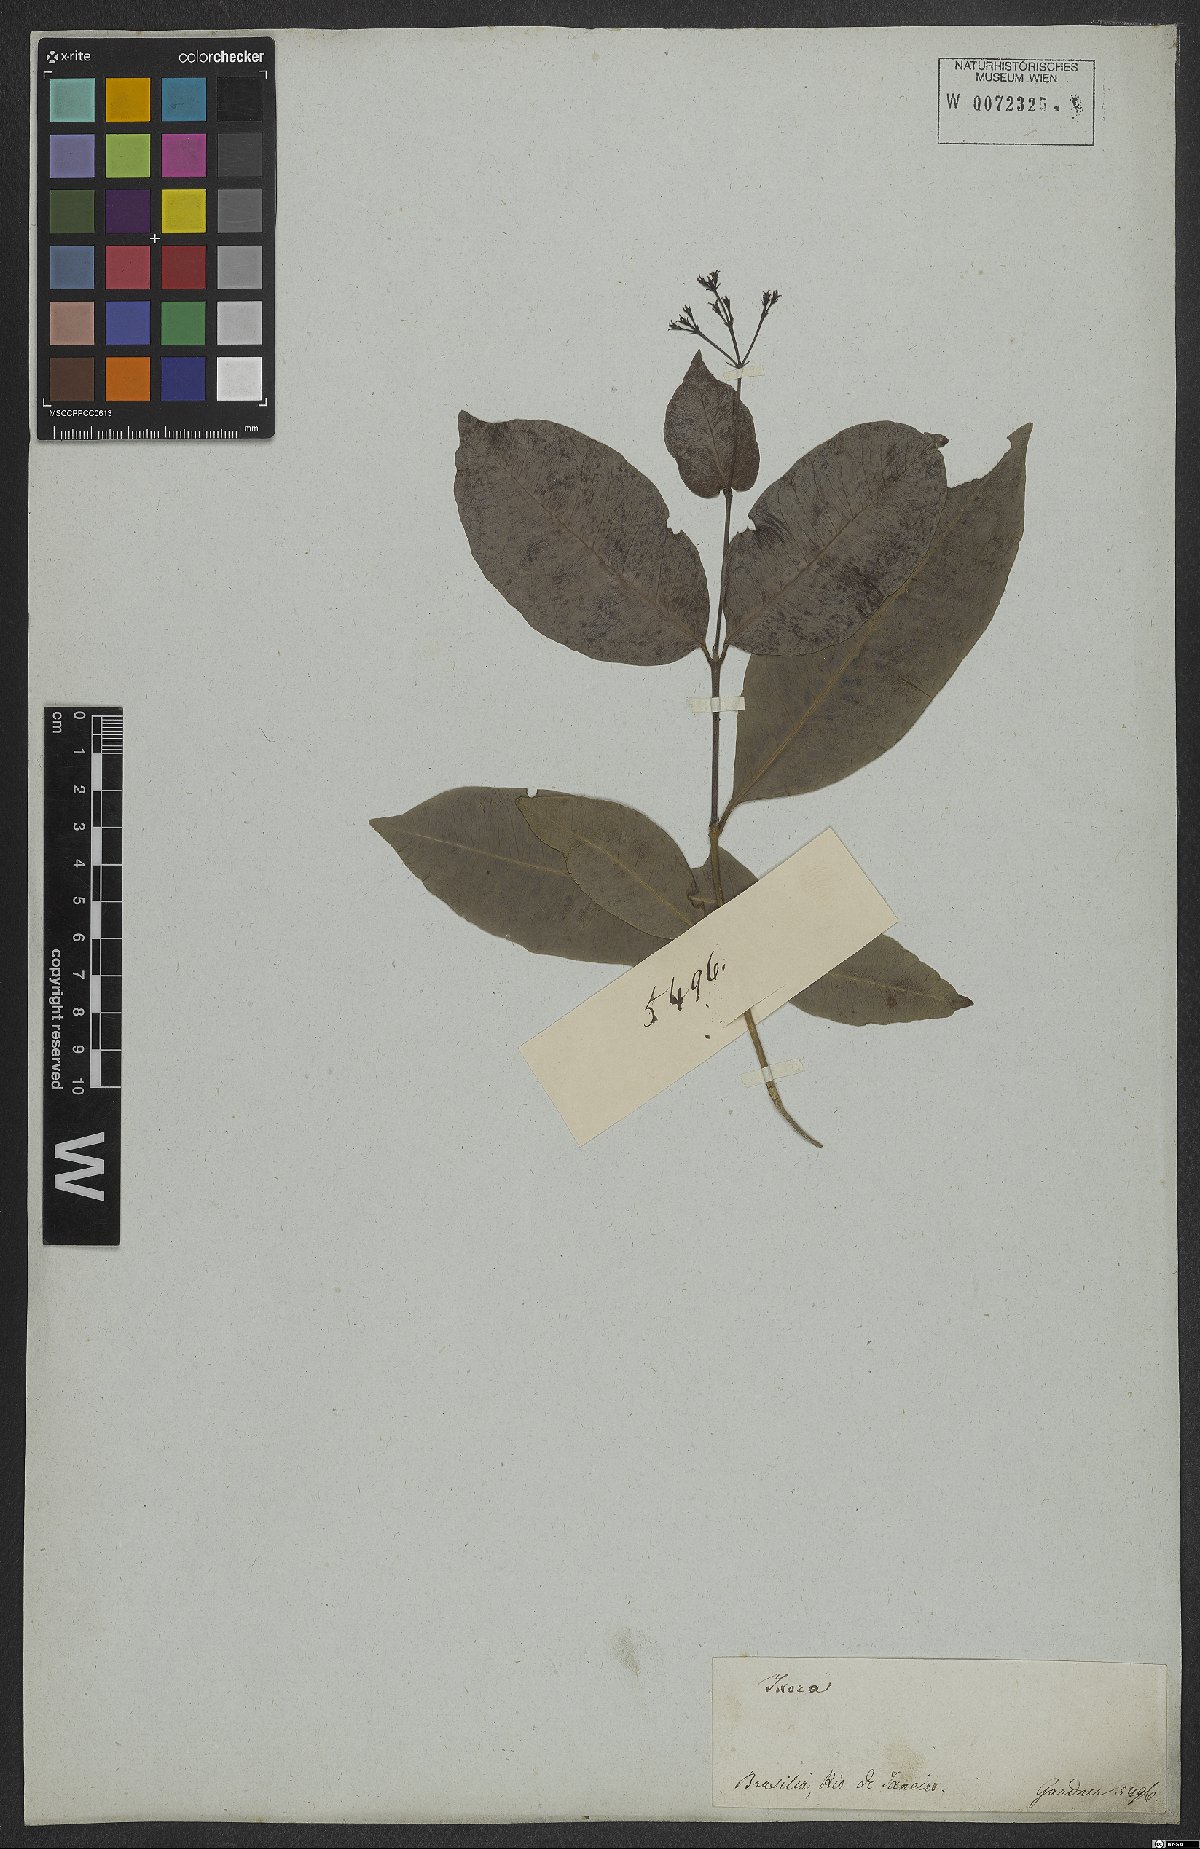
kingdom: Plantae
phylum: Tracheophyta
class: Magnoliopsida
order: Gentianales
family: Rubiaceae
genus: Ixora
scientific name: Ixora gardneriana
